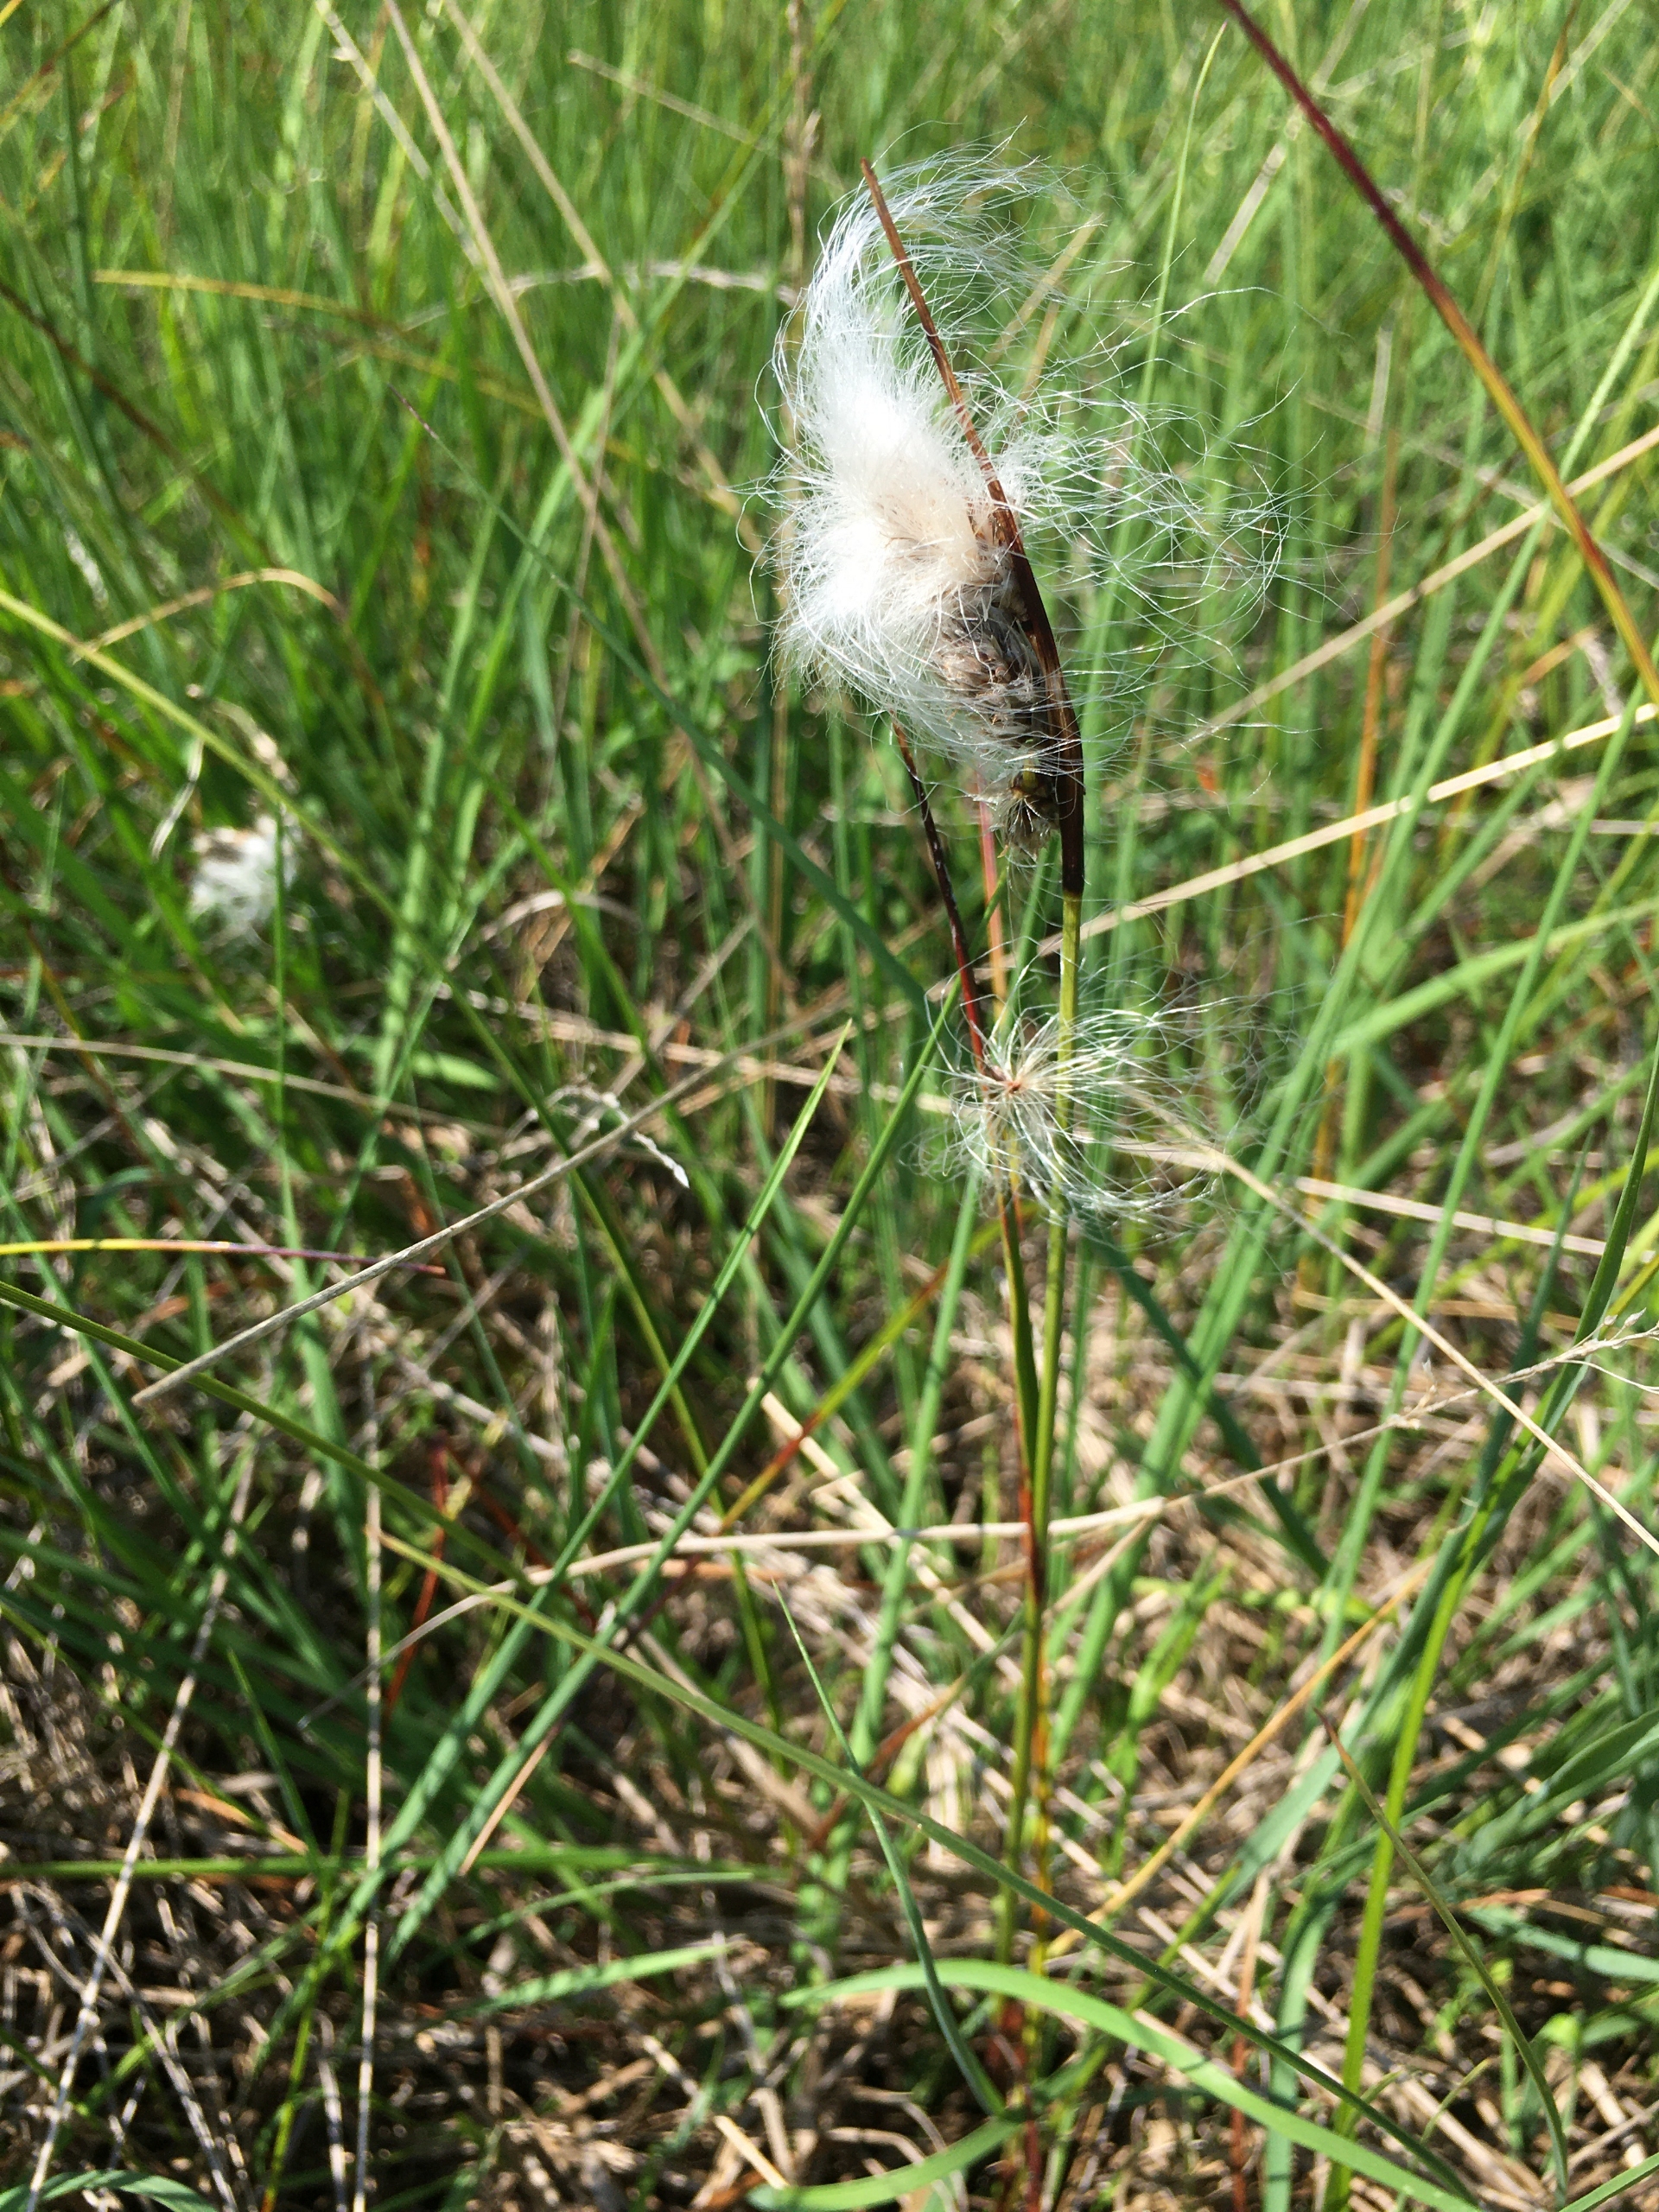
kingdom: Plantae
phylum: Tracheophyta
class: Liliopsida
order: Poales
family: Cyperaceae
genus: Eriophorum
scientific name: Eriophorum angustifolium
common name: Smalbladet kæruld
